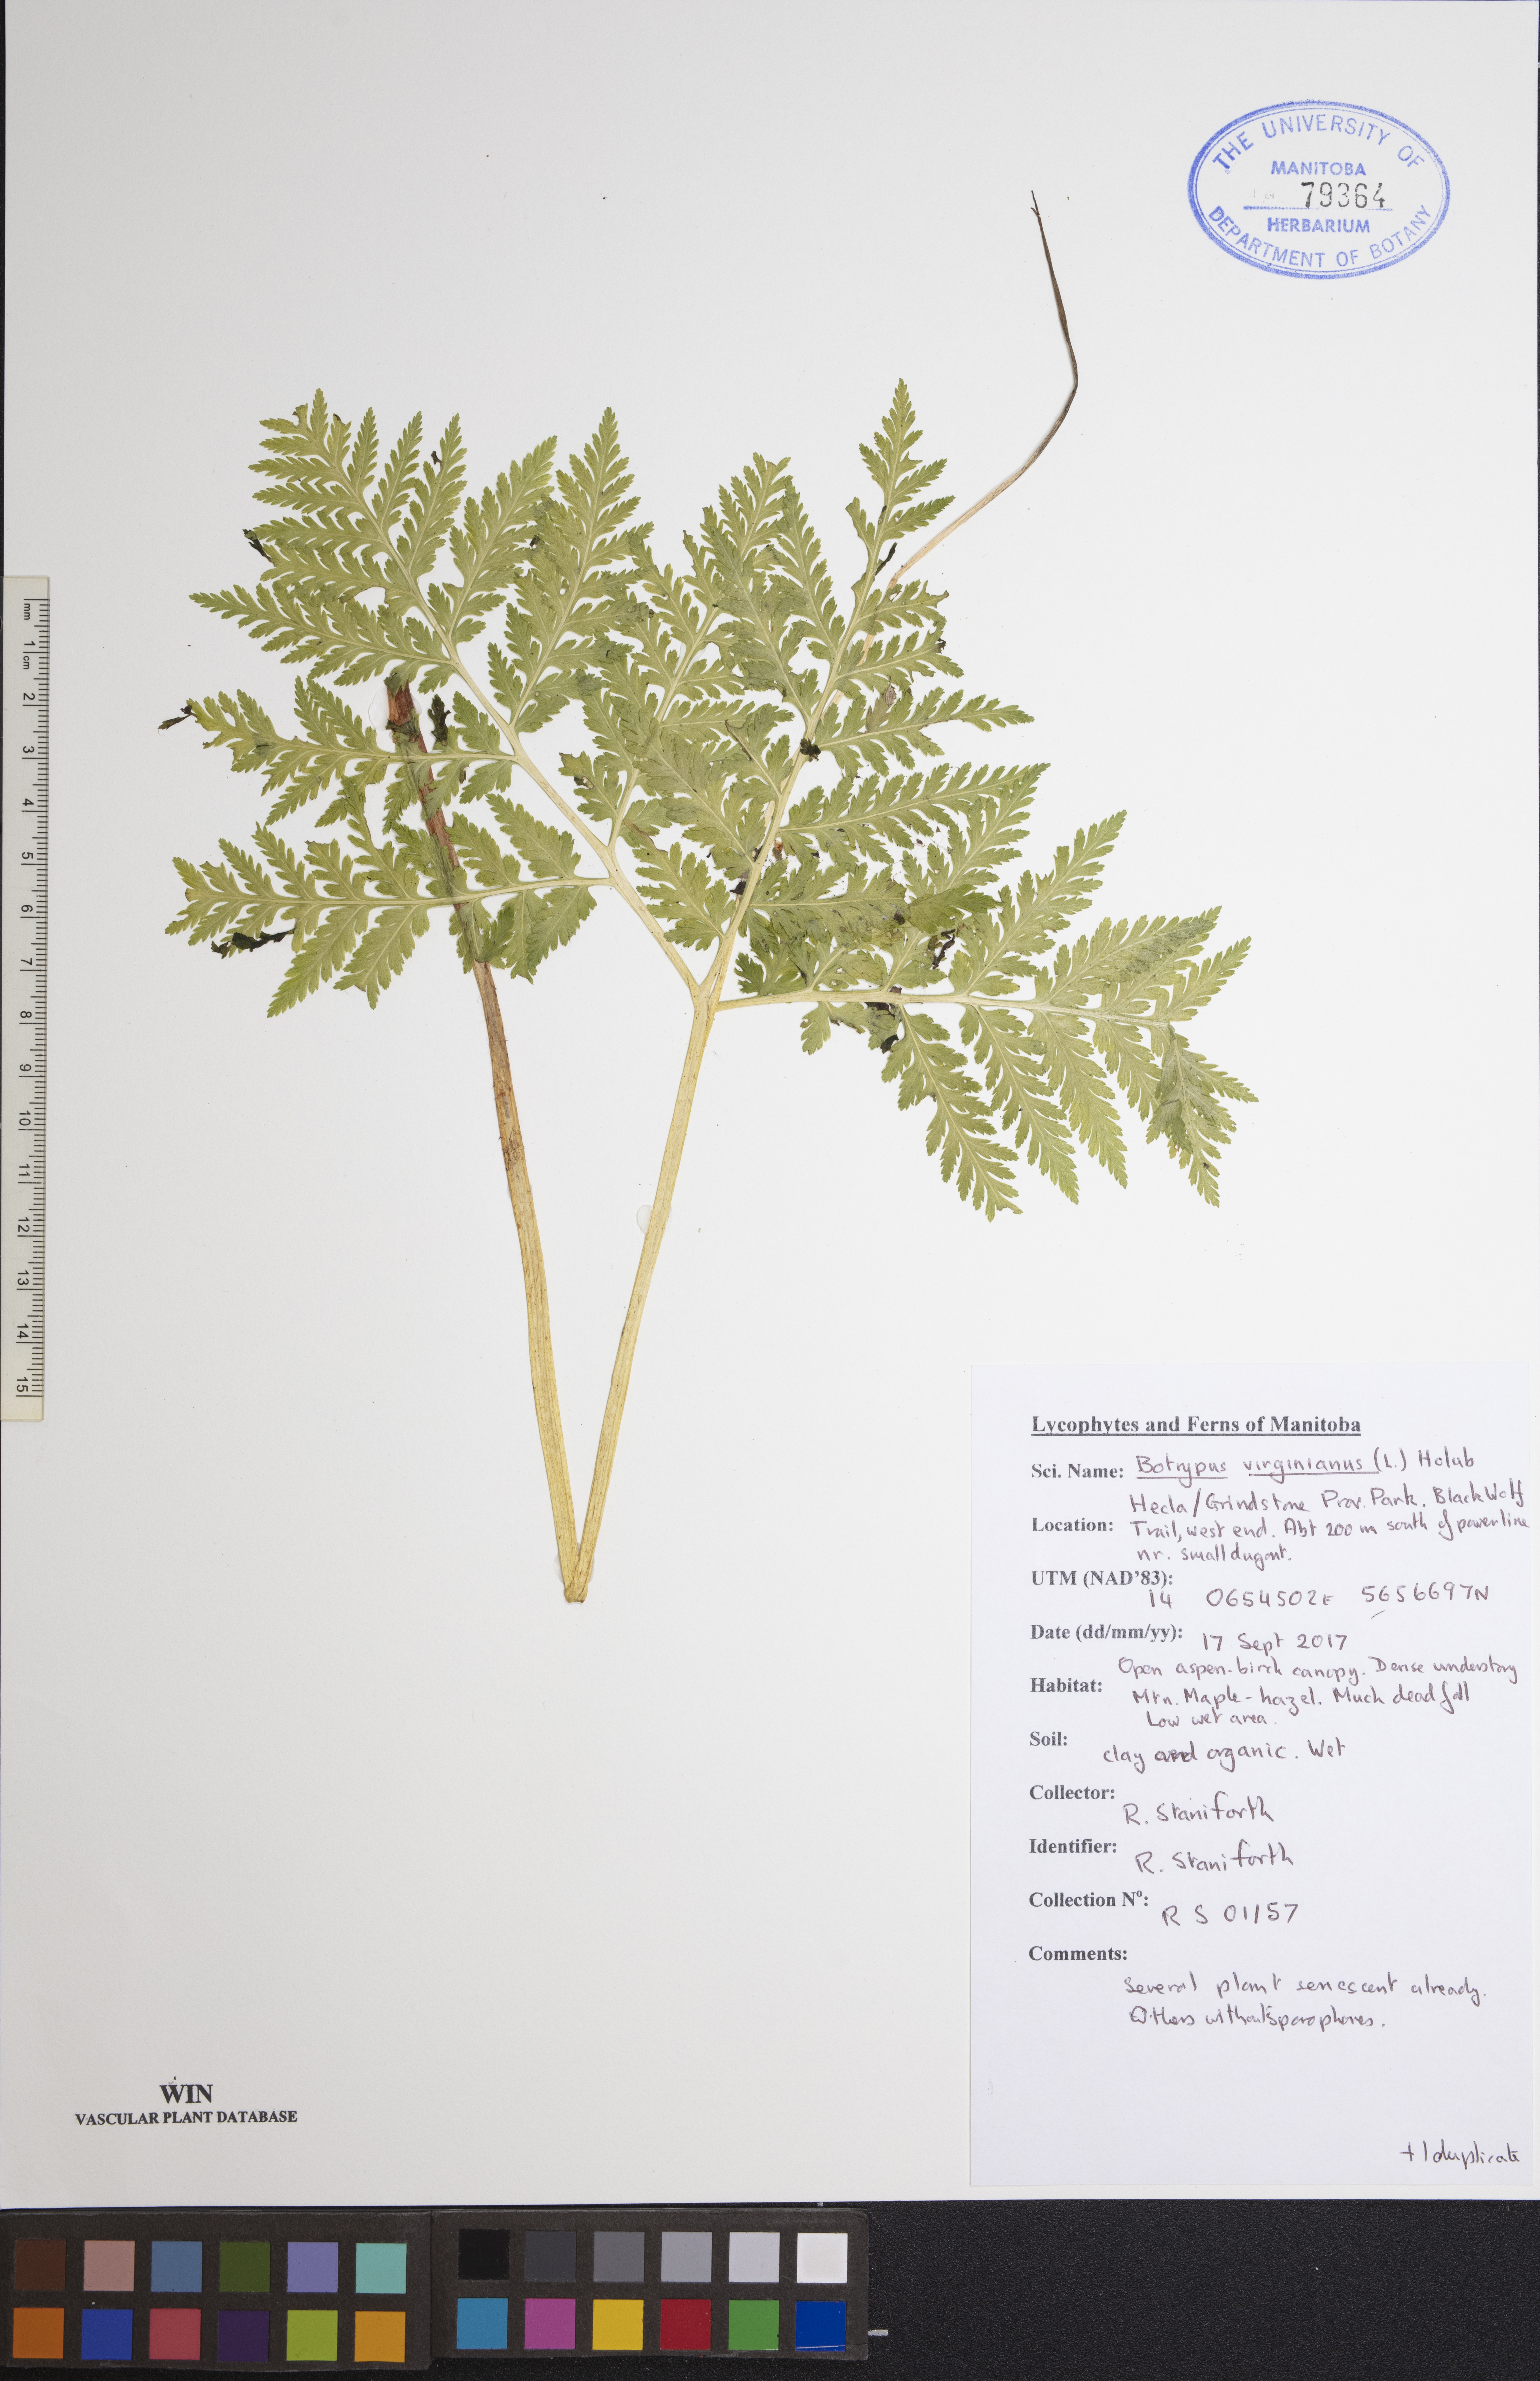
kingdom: Plantae
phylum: Tracheophyta
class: Polypodiopsida
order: Ophioglossales
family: Ophioglossaceae
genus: Botrypus
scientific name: Botrypus virginianus
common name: Common grapefern
